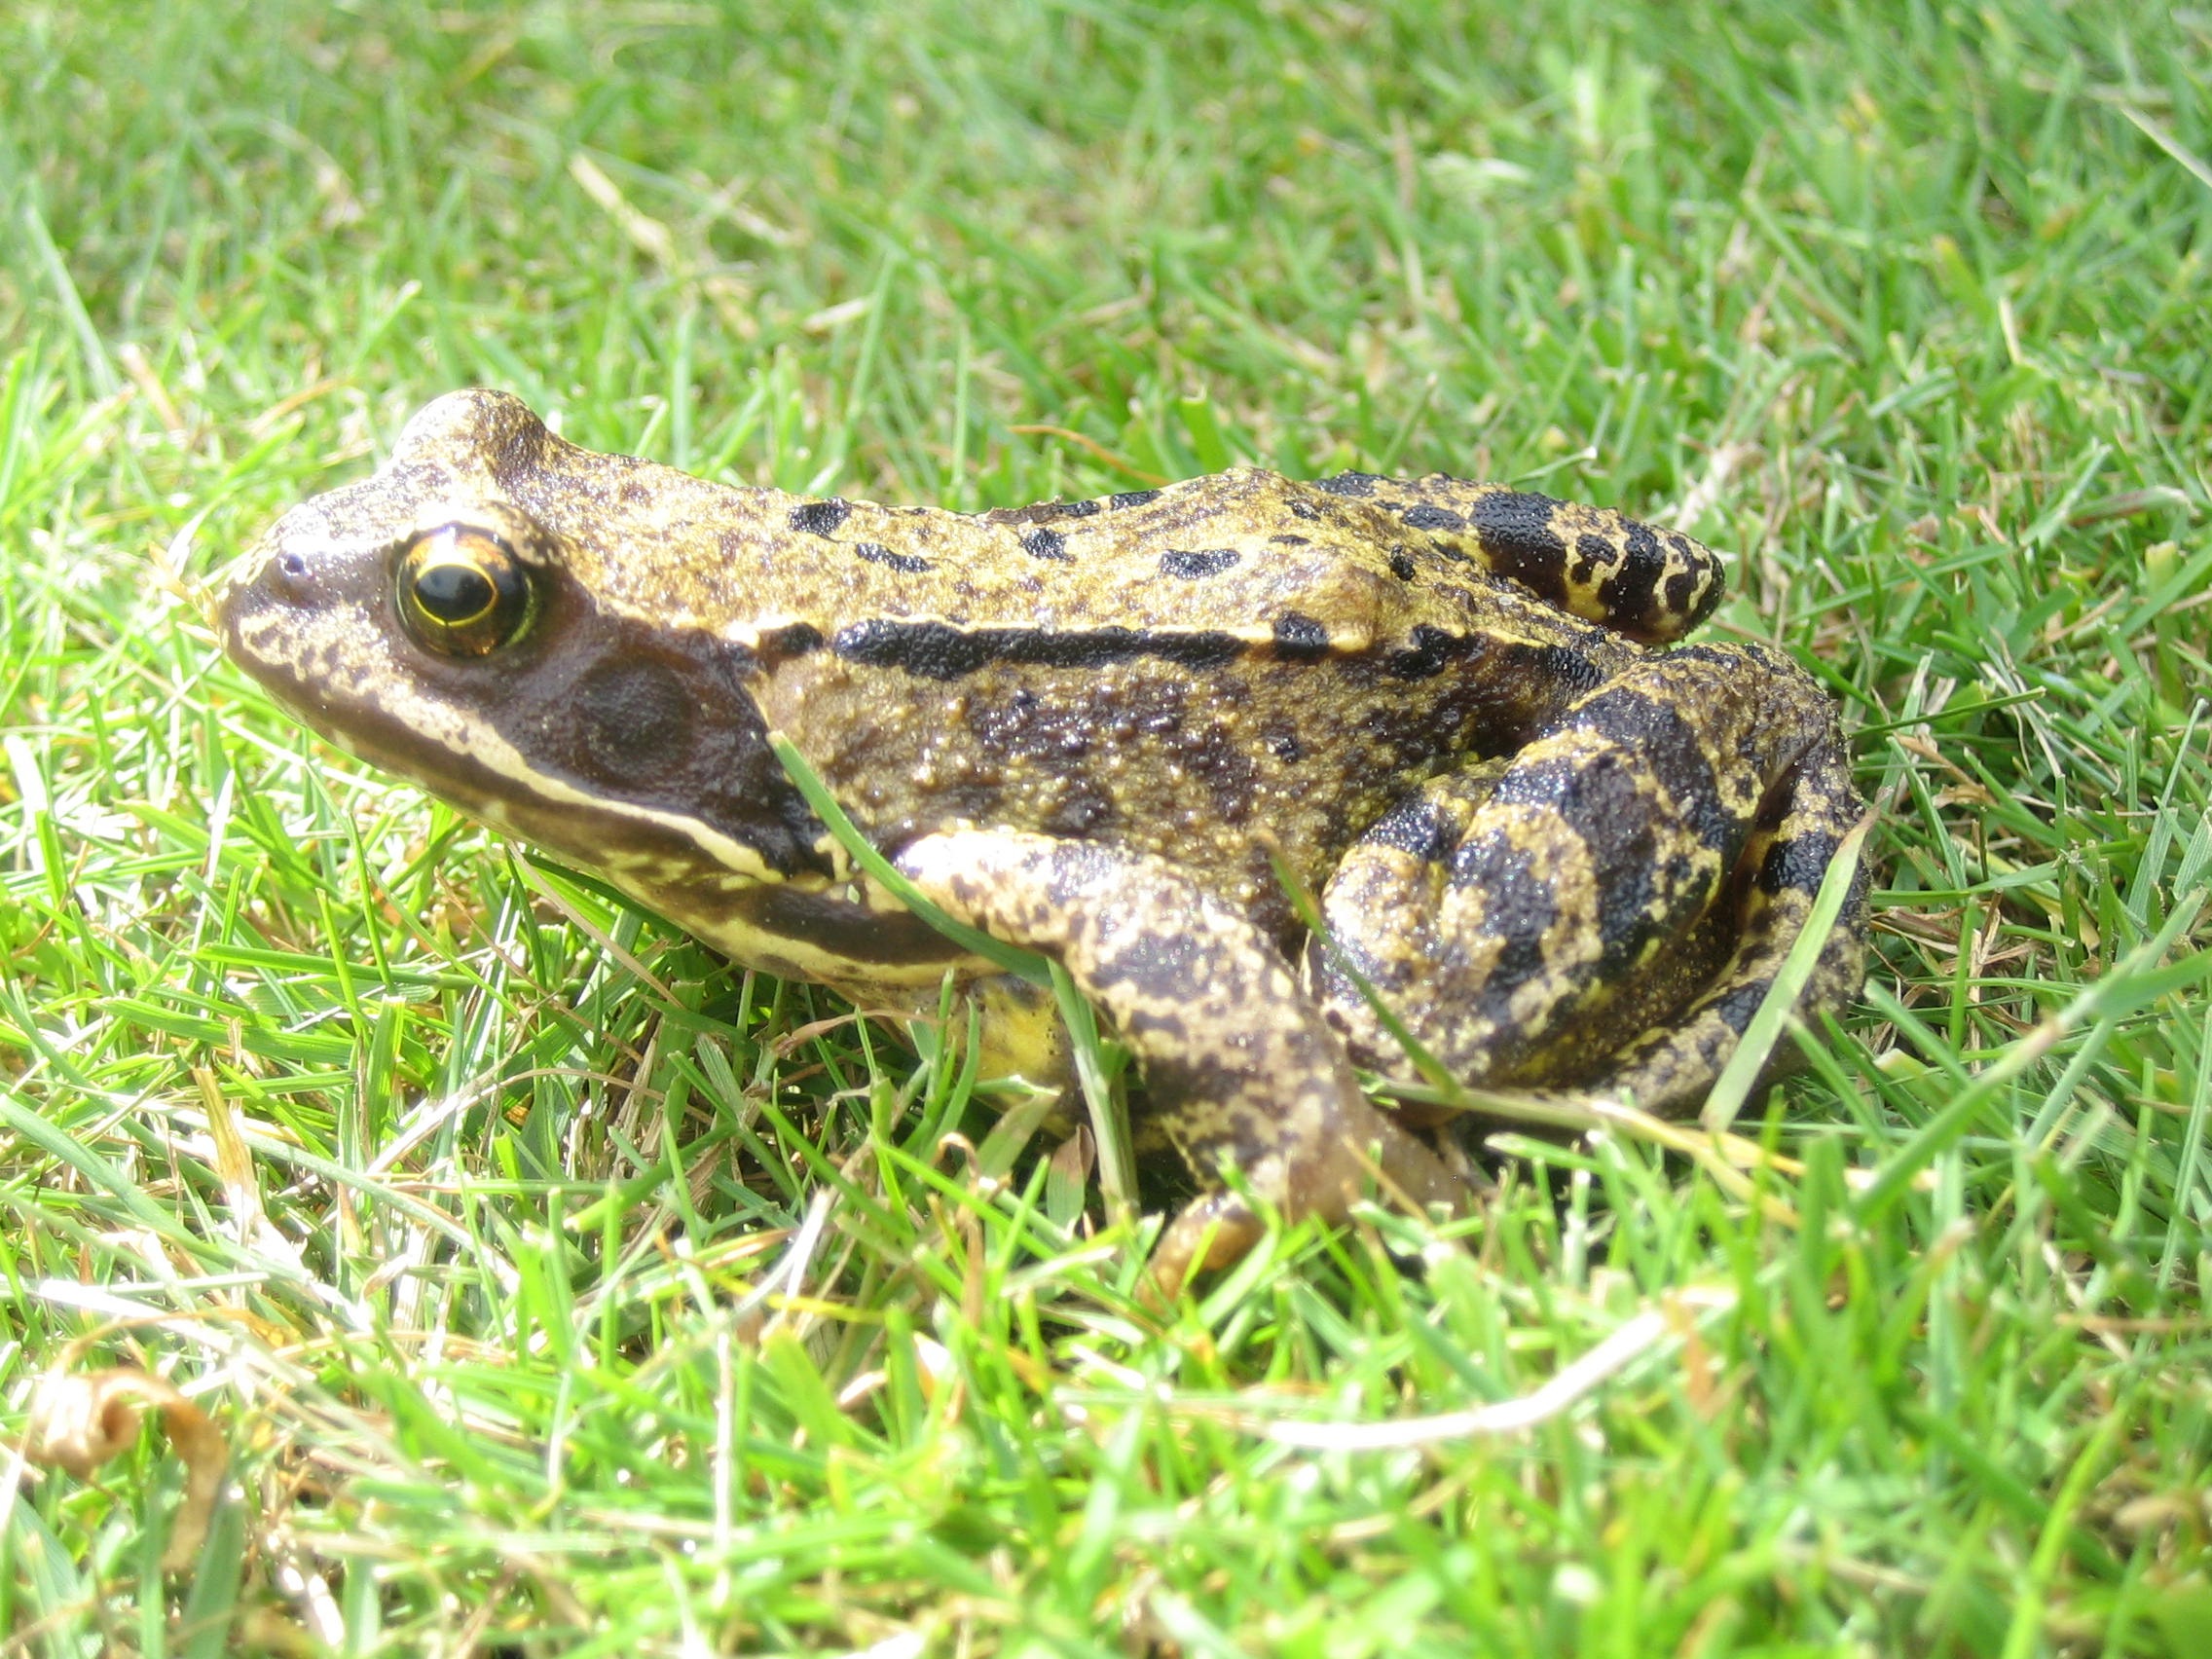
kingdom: Animalia
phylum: Chordata
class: Amphibia
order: Anura
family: Ranidae
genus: Rana
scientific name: Rana temporaria
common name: Butsnudet frø
